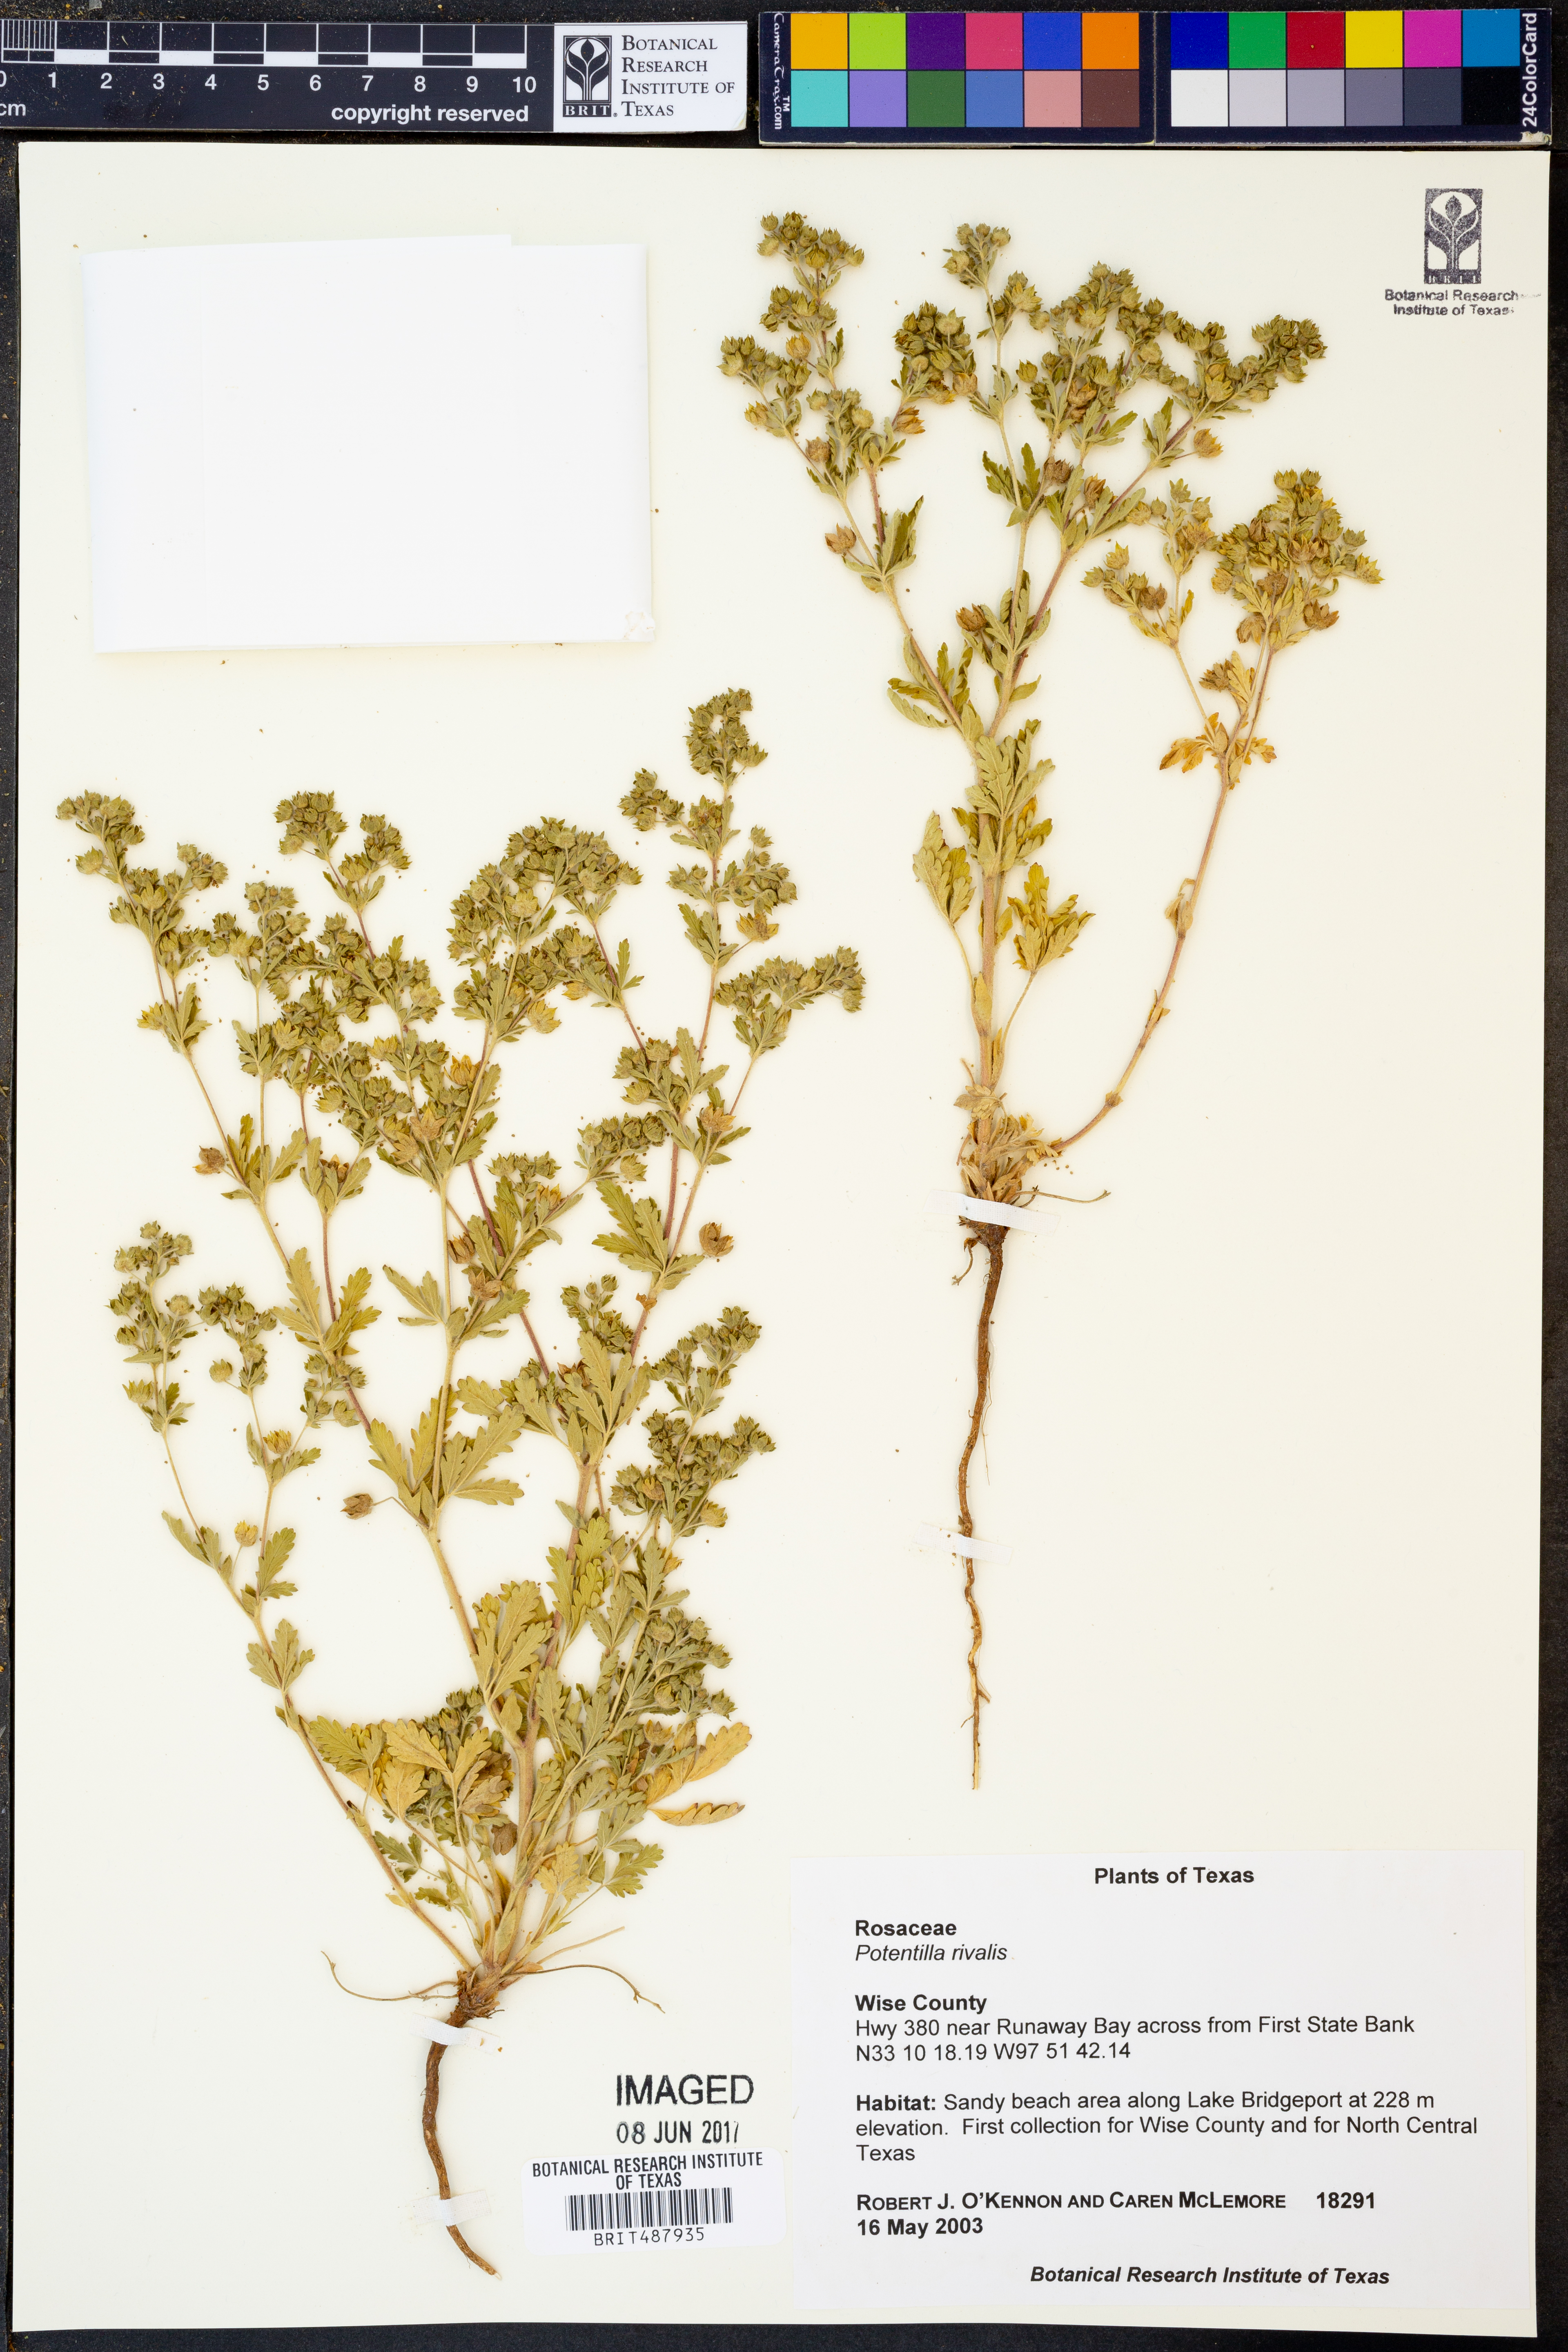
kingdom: Plantae
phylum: Tracheophyta
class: Magnoliopsida
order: Rosales
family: Rosaceae
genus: Potentilla
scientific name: Potentilla rivalis
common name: Brook cinquefoil
